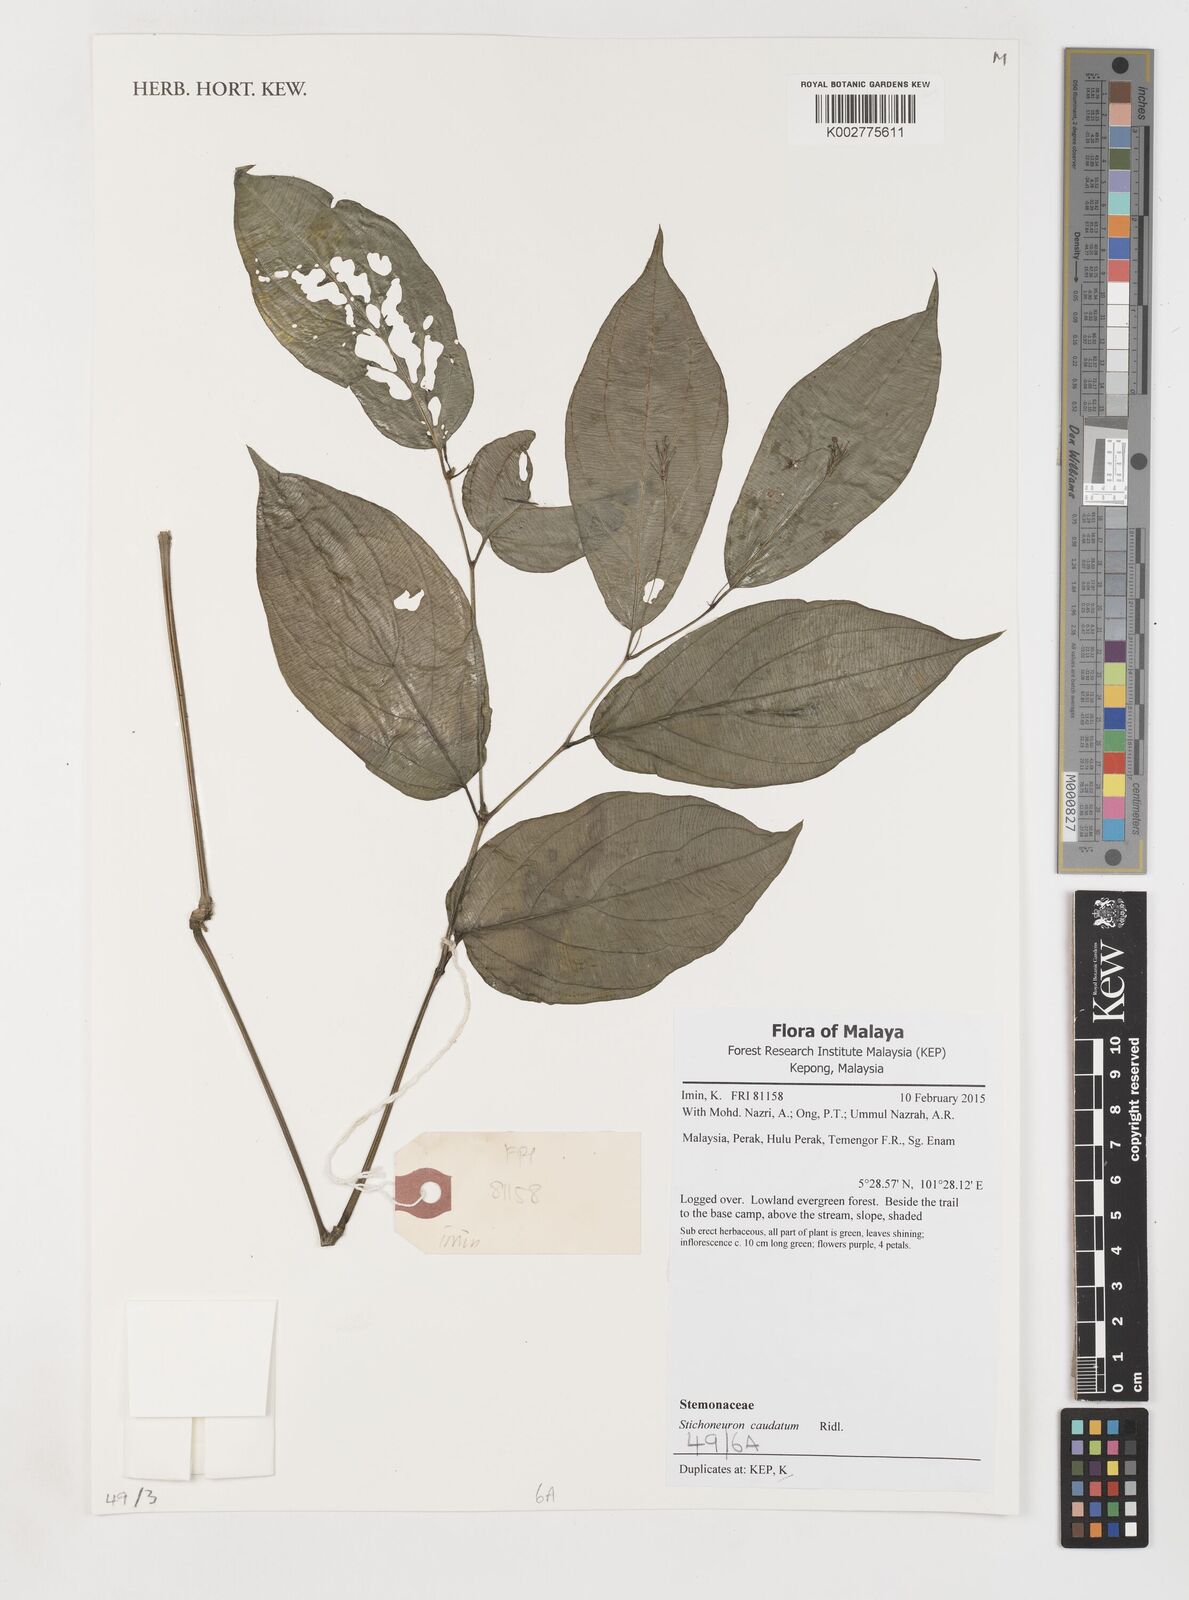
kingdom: Plantae
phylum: Tracheophyta
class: Liliopsida
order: Pandanales
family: Stemonaceae
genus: Stemona
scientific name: Stemona
